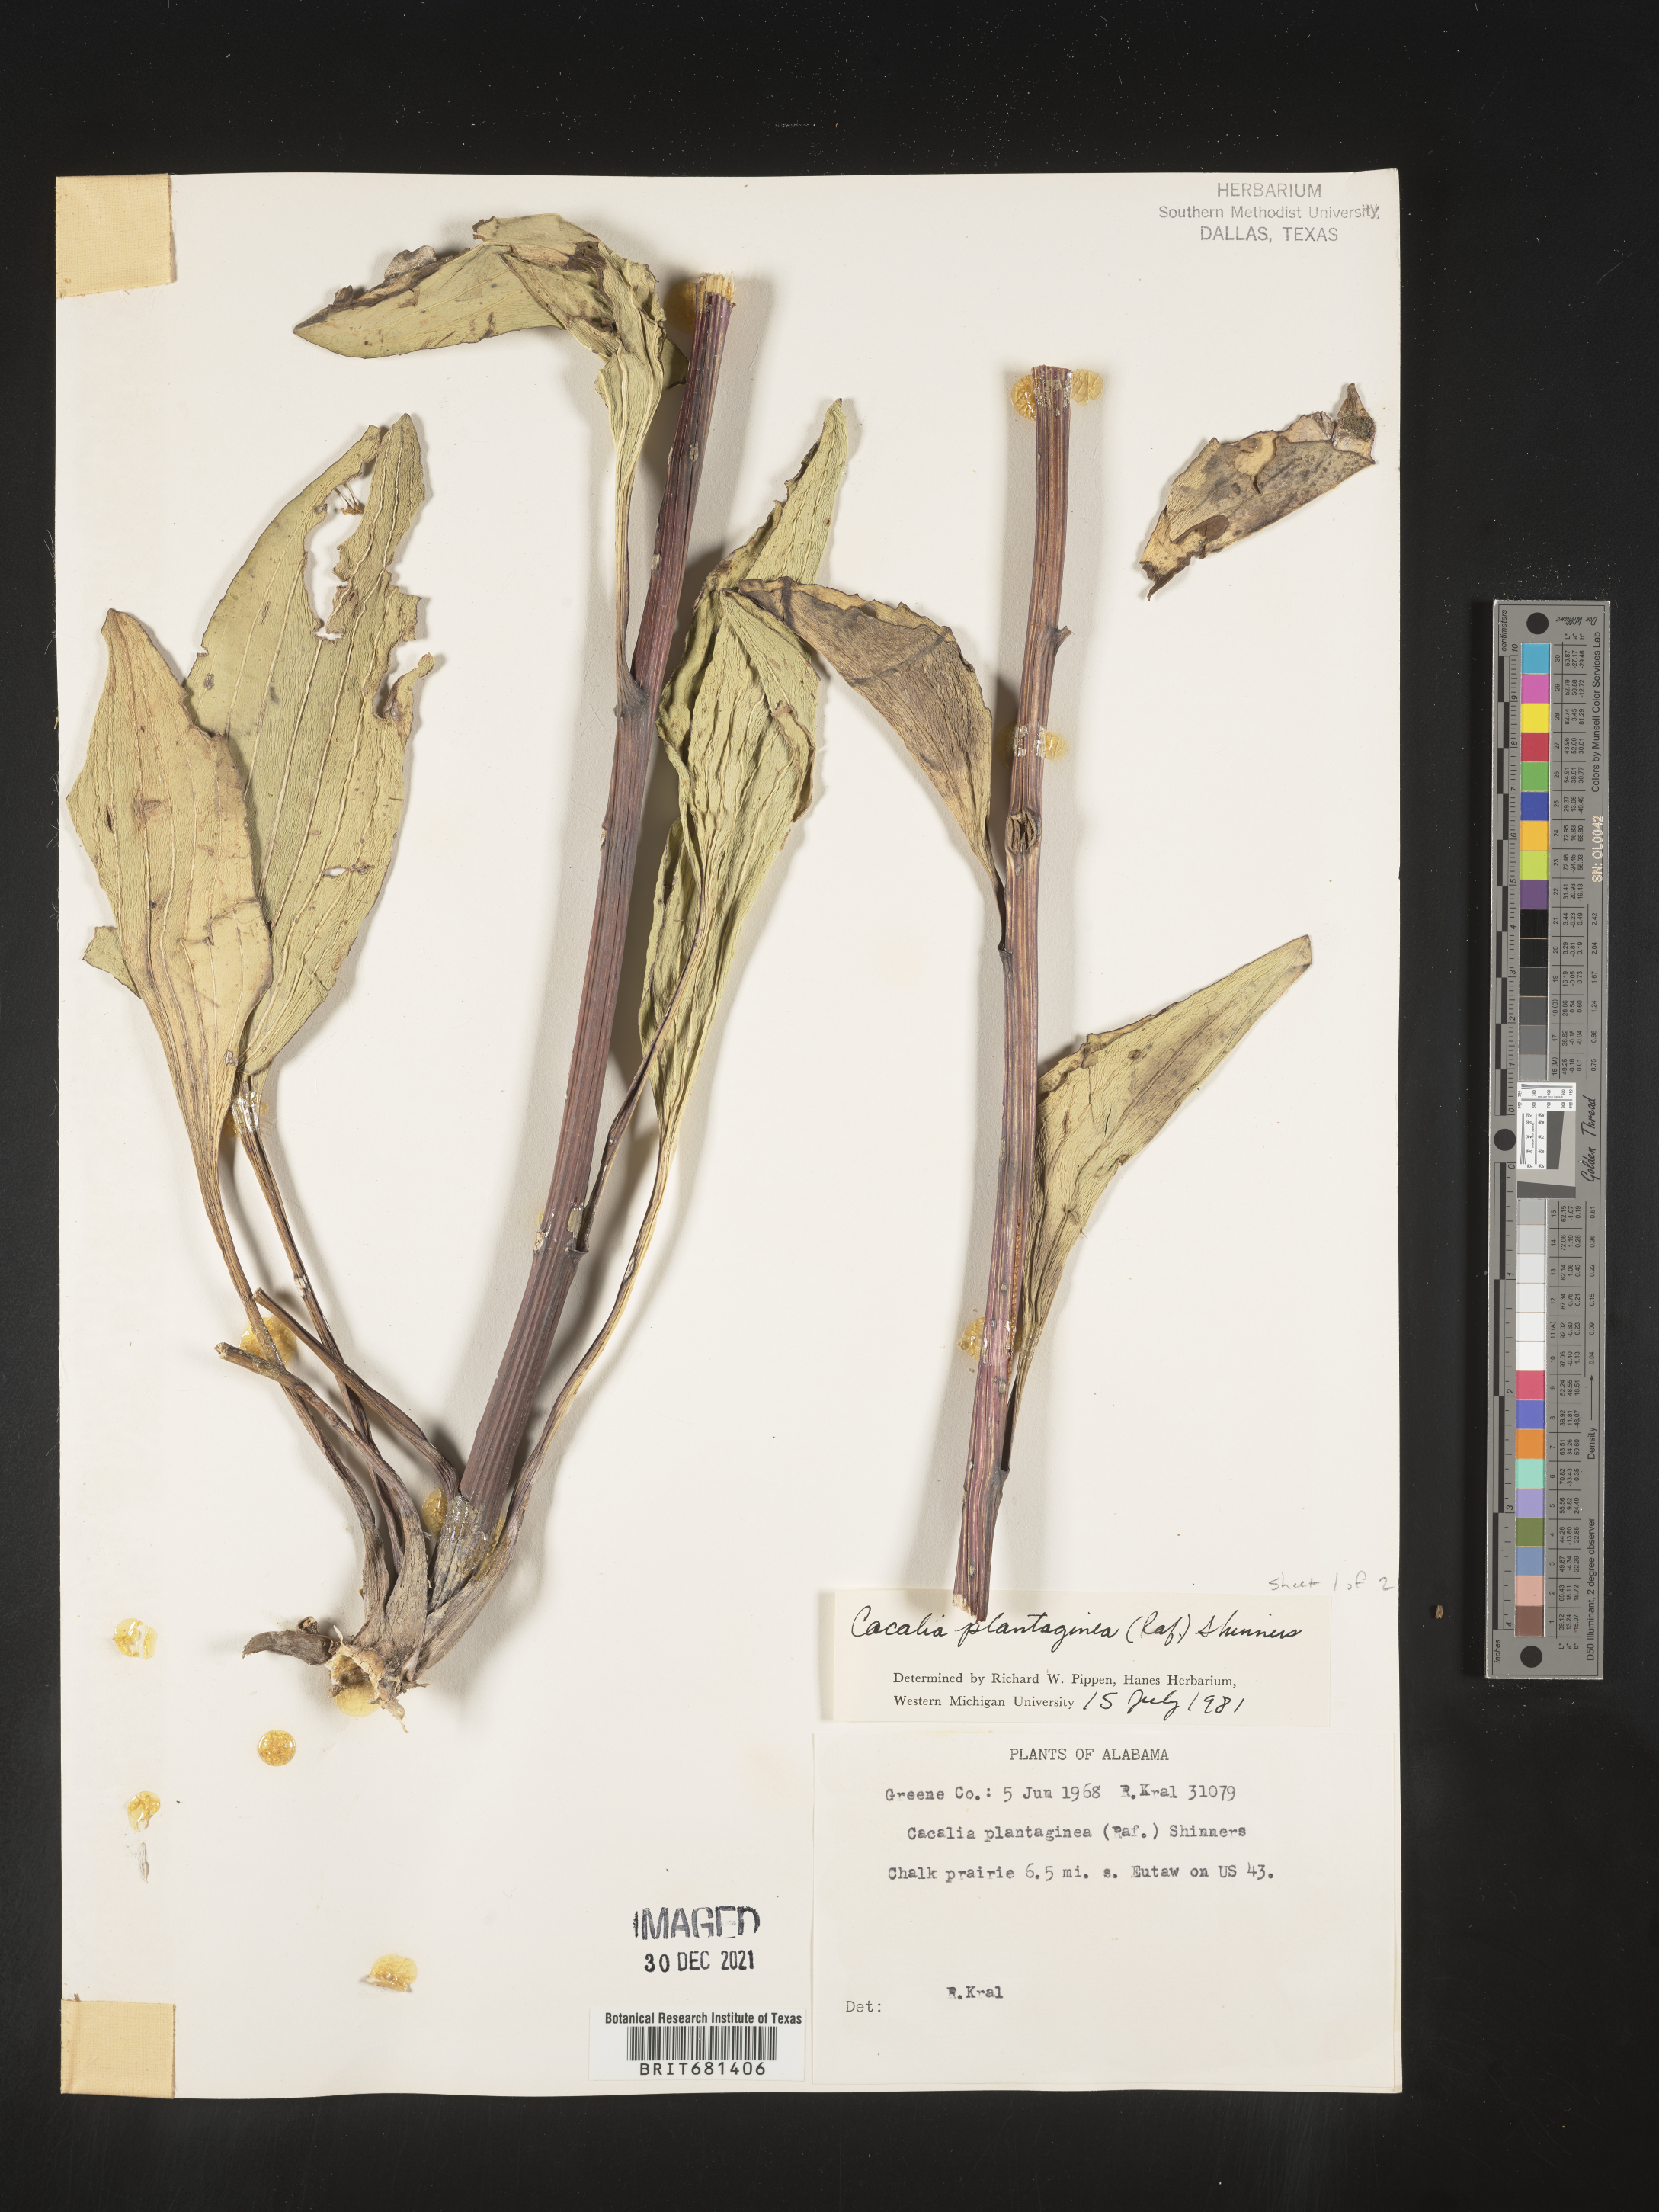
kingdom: Plantae
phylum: Tracheophyta
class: Magnoliopsida
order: Asterales
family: Asteraceae
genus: Arnoglossum
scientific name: Arnoglossum plantagineum
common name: Groove-stemmed indian-plantain
